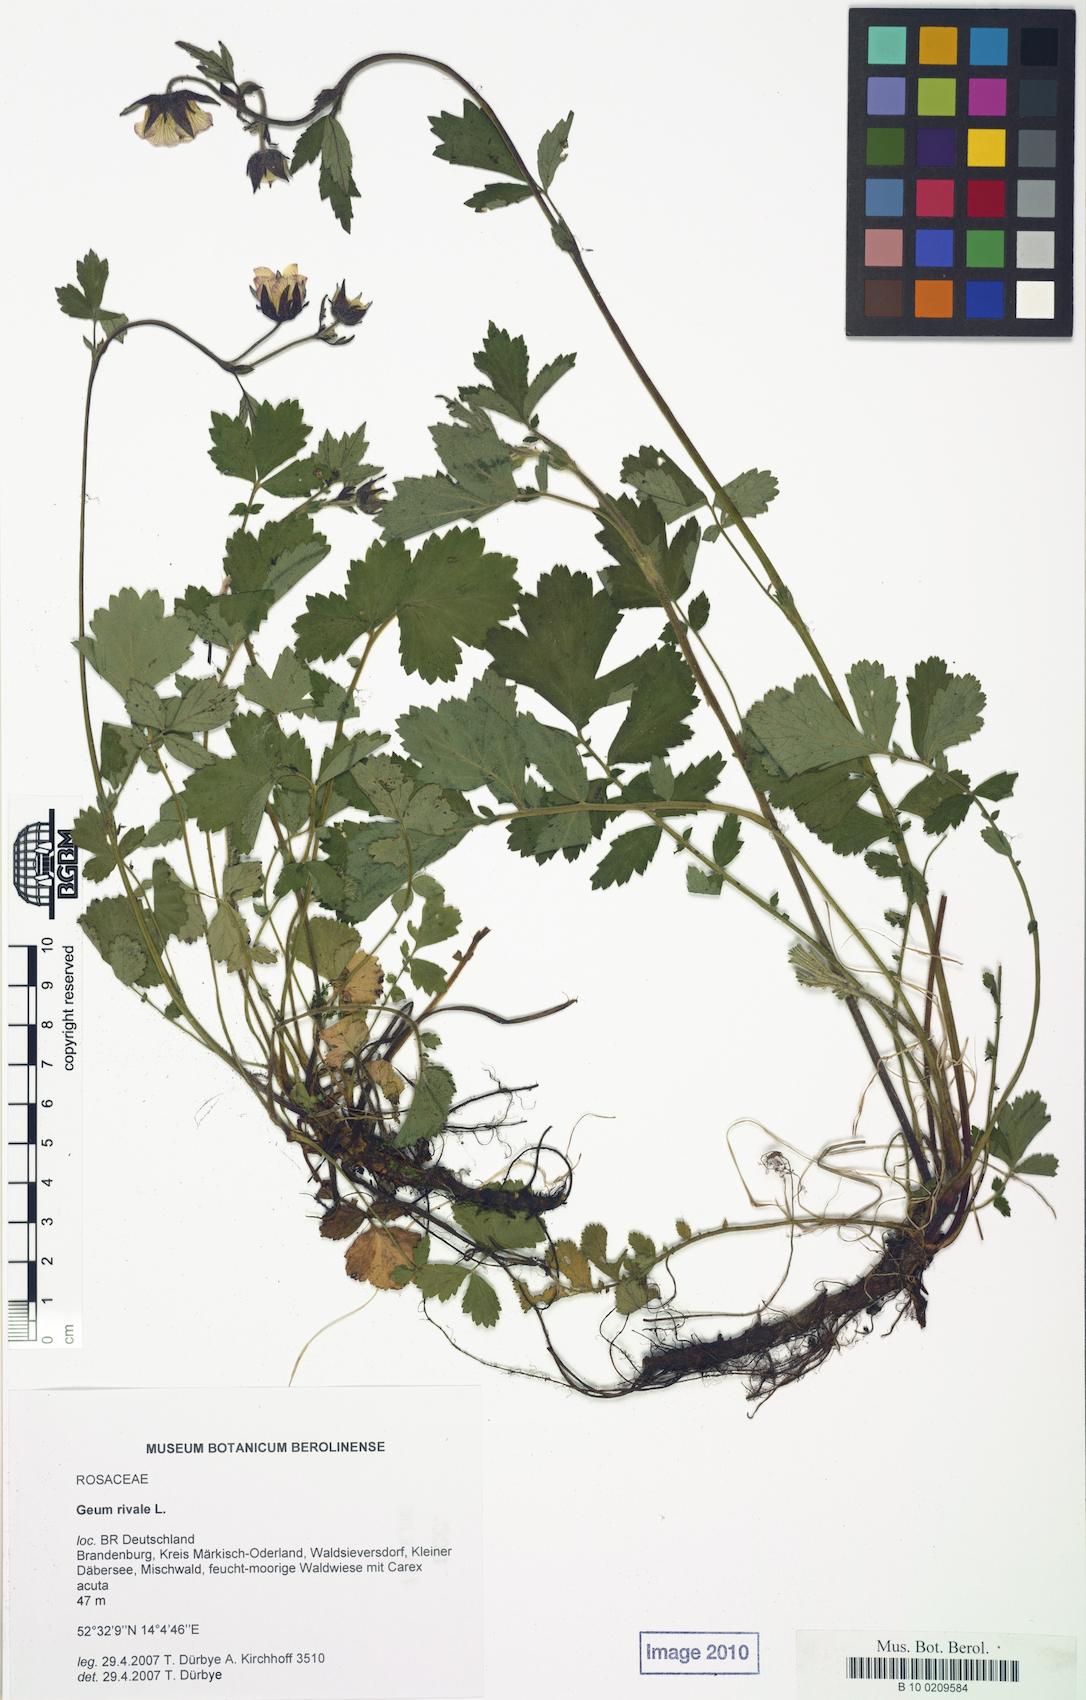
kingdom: Plantae
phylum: Tracheophyta
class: Magnoliopsida
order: Rosales
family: Rosaceae
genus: Geum
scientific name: Geum rivale
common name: Water avens
